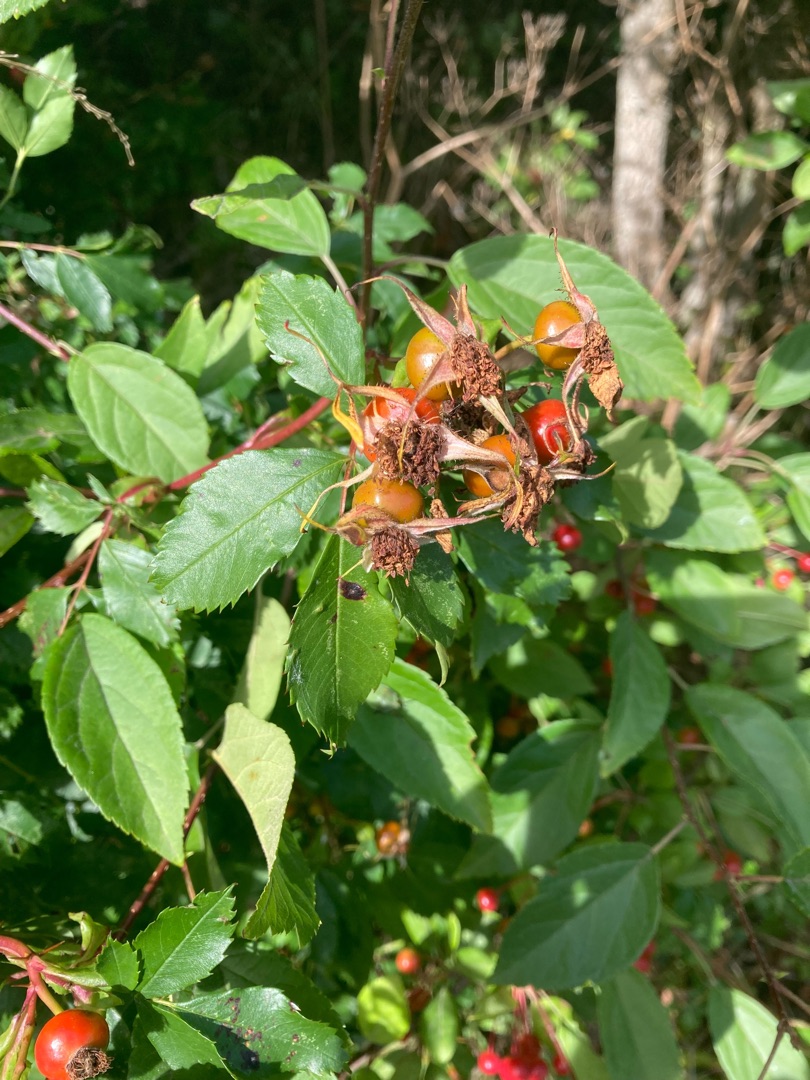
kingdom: Plantae
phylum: Tracheophyta
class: Magnoliopsida
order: Rosales
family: Rosaceae
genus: Rosa
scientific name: Rosa carolina
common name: Glansbladet rose
